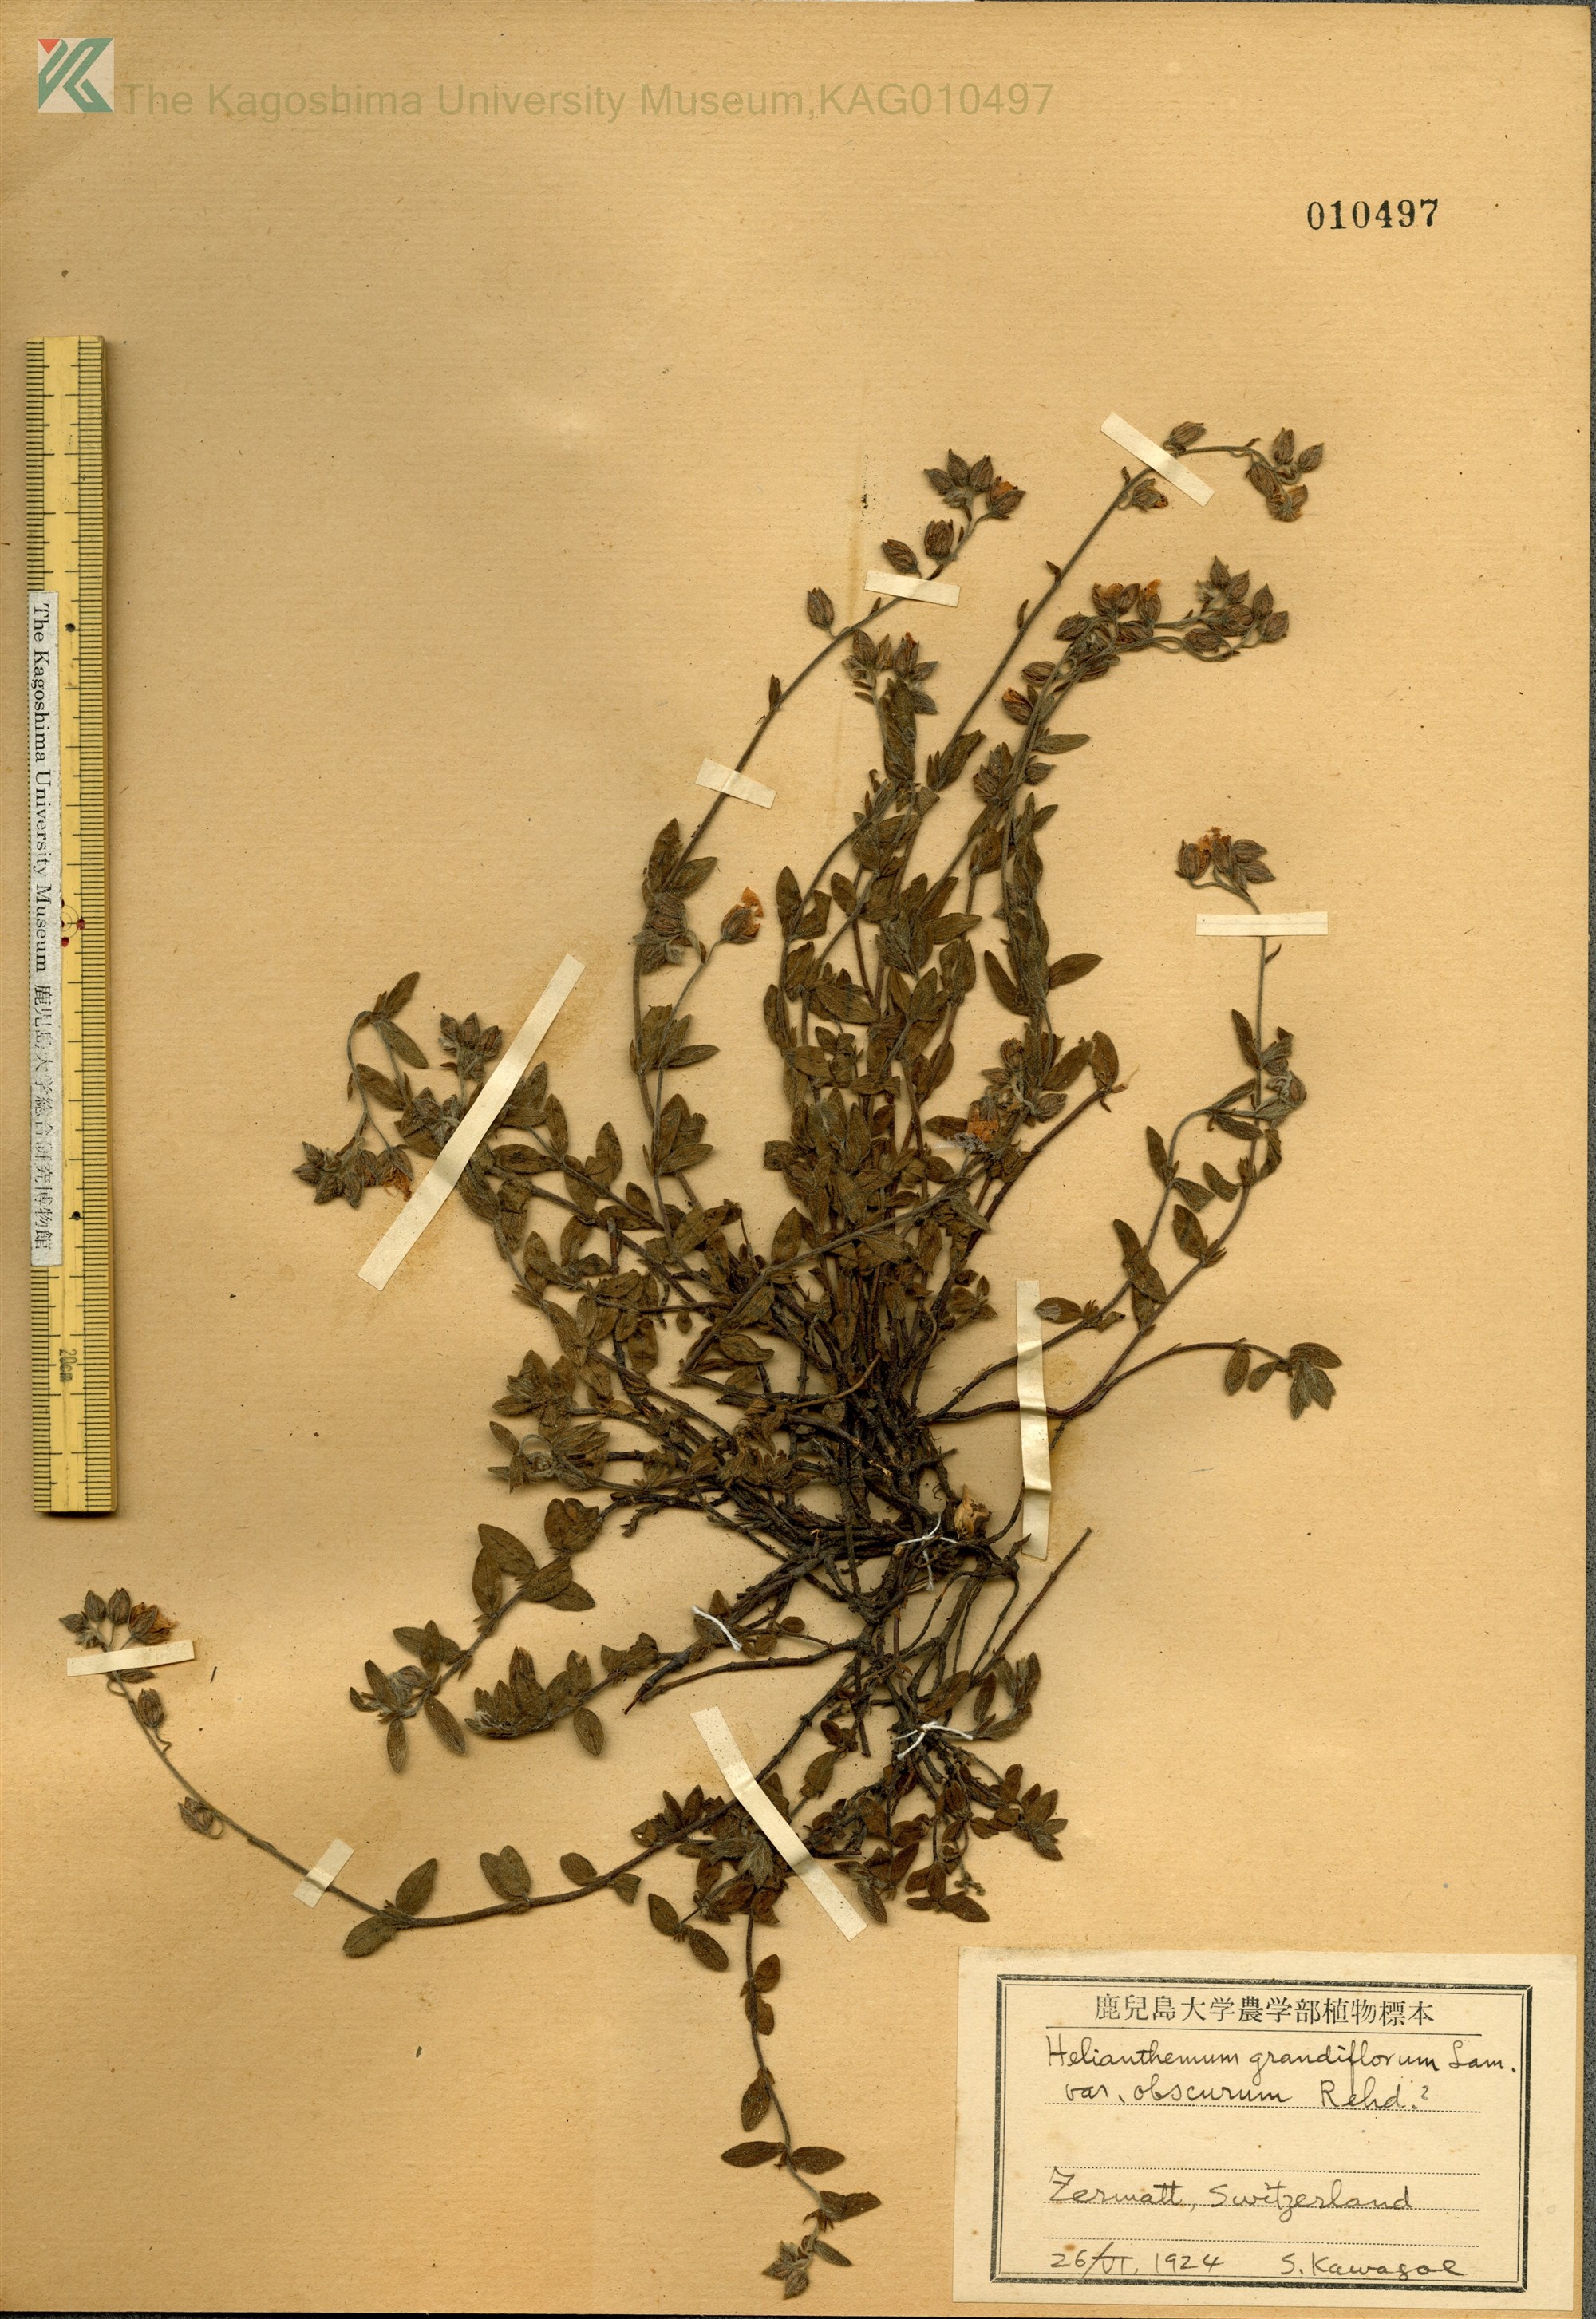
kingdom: Plantae
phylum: Tracheophyta
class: Magnoliopsida
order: Malvales
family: Cistaceae
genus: Helianthemum
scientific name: Helianthemum nummularium
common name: Common rock-rose
